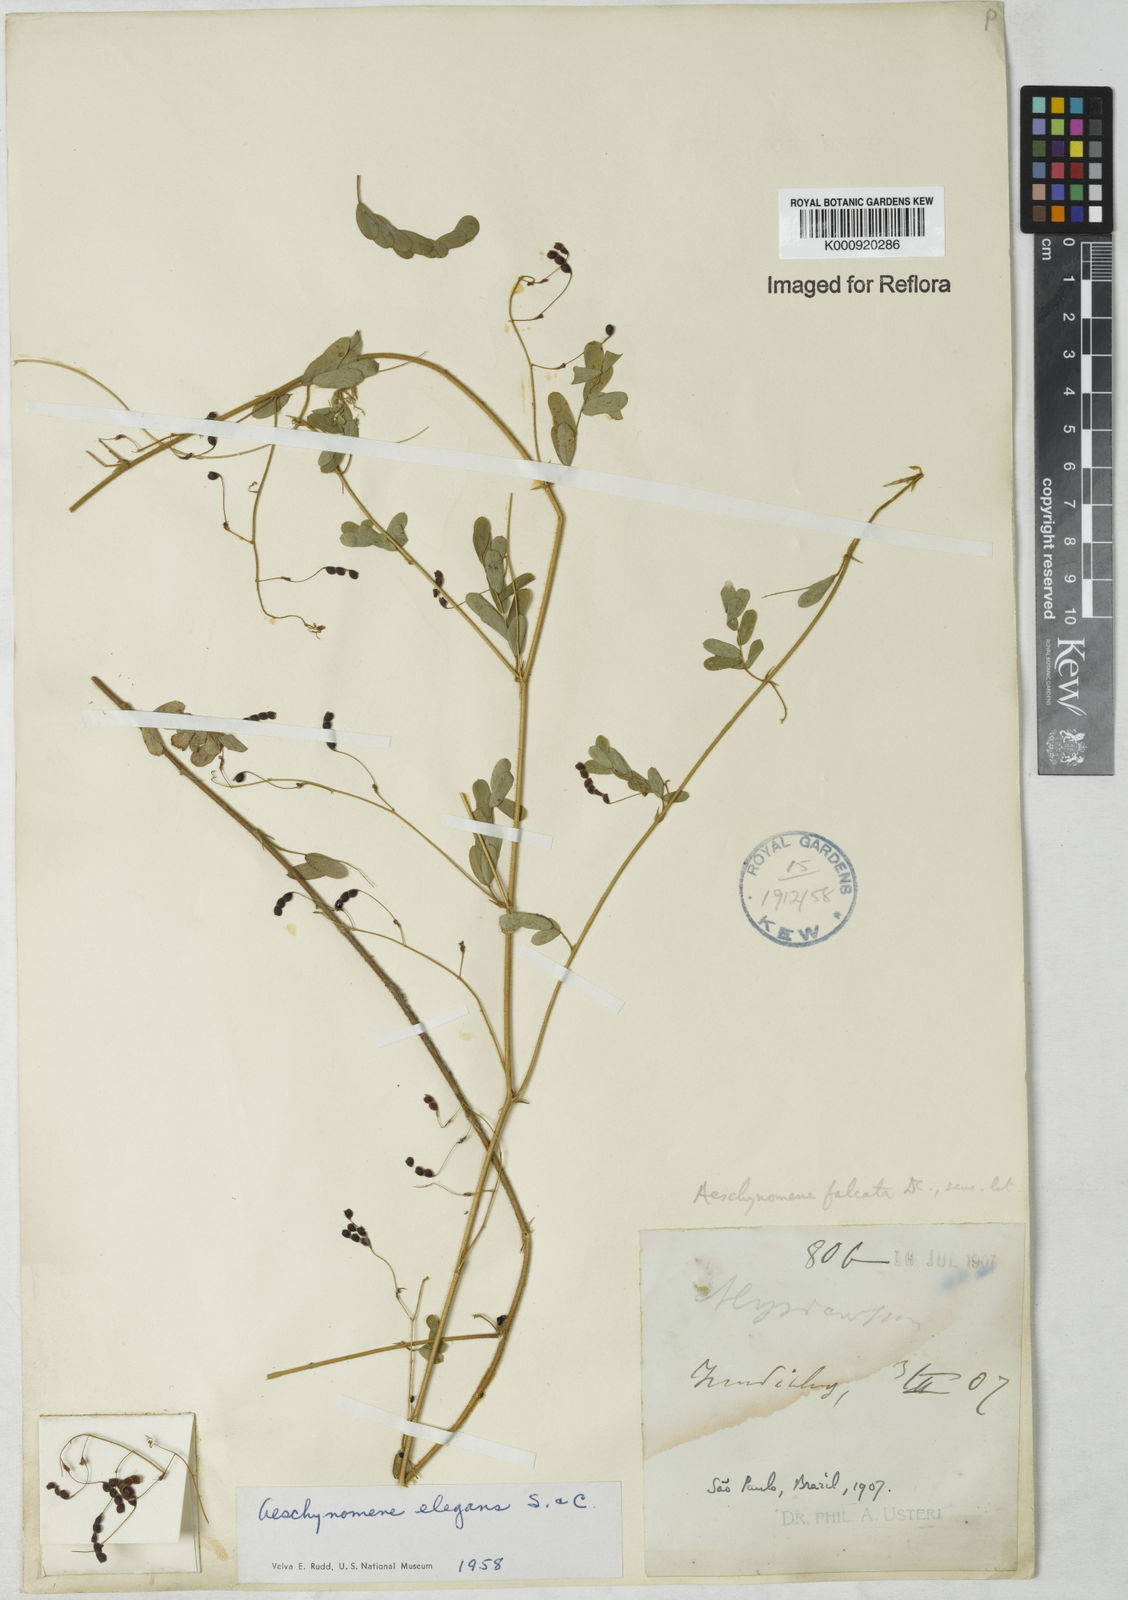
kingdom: Plantae
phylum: Tracheophyta
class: Magnoliopsida
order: Fabales
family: Fabaceae
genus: Ctenodon
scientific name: Ctenodon elegans
